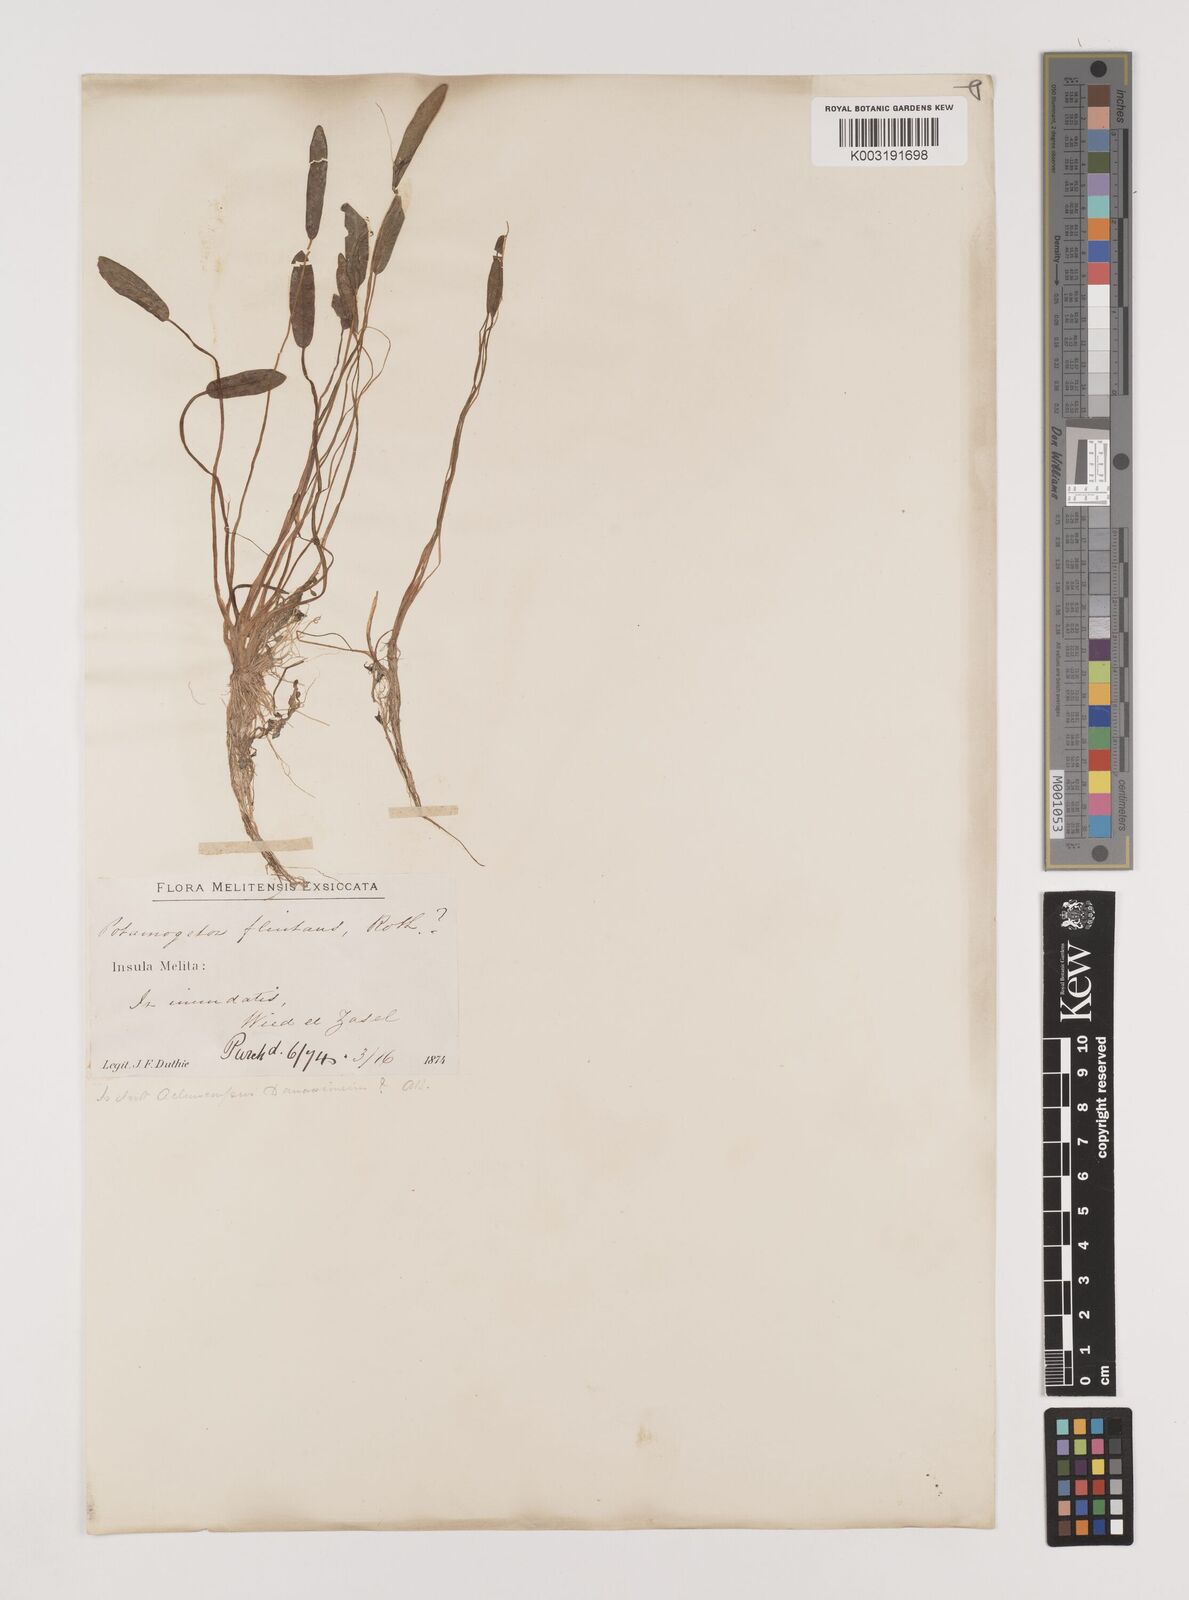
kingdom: Plantae
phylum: Tracheophyta
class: Liliopsida
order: Alismatales
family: Alismataceae
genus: Damasonium
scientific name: Damasonium alisma
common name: Starfruit
